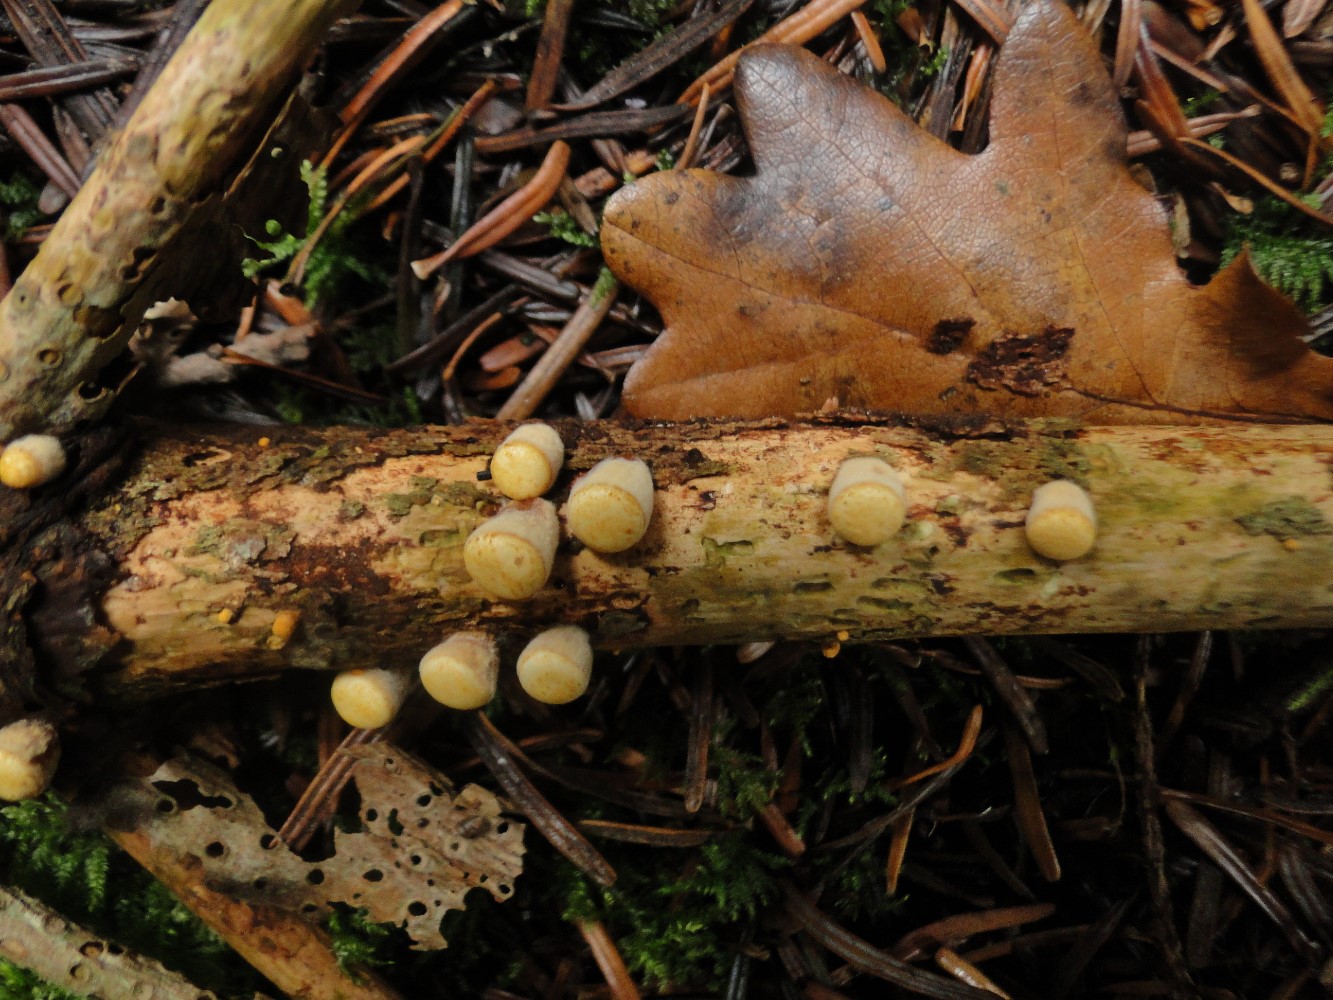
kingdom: Fungi
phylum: Basidiomycota
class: Agaricomycetes
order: Agaricales
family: Nidulariaceae
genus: Crucibulum
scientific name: Crucibulum crucibuliforme
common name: krukkesvamp
